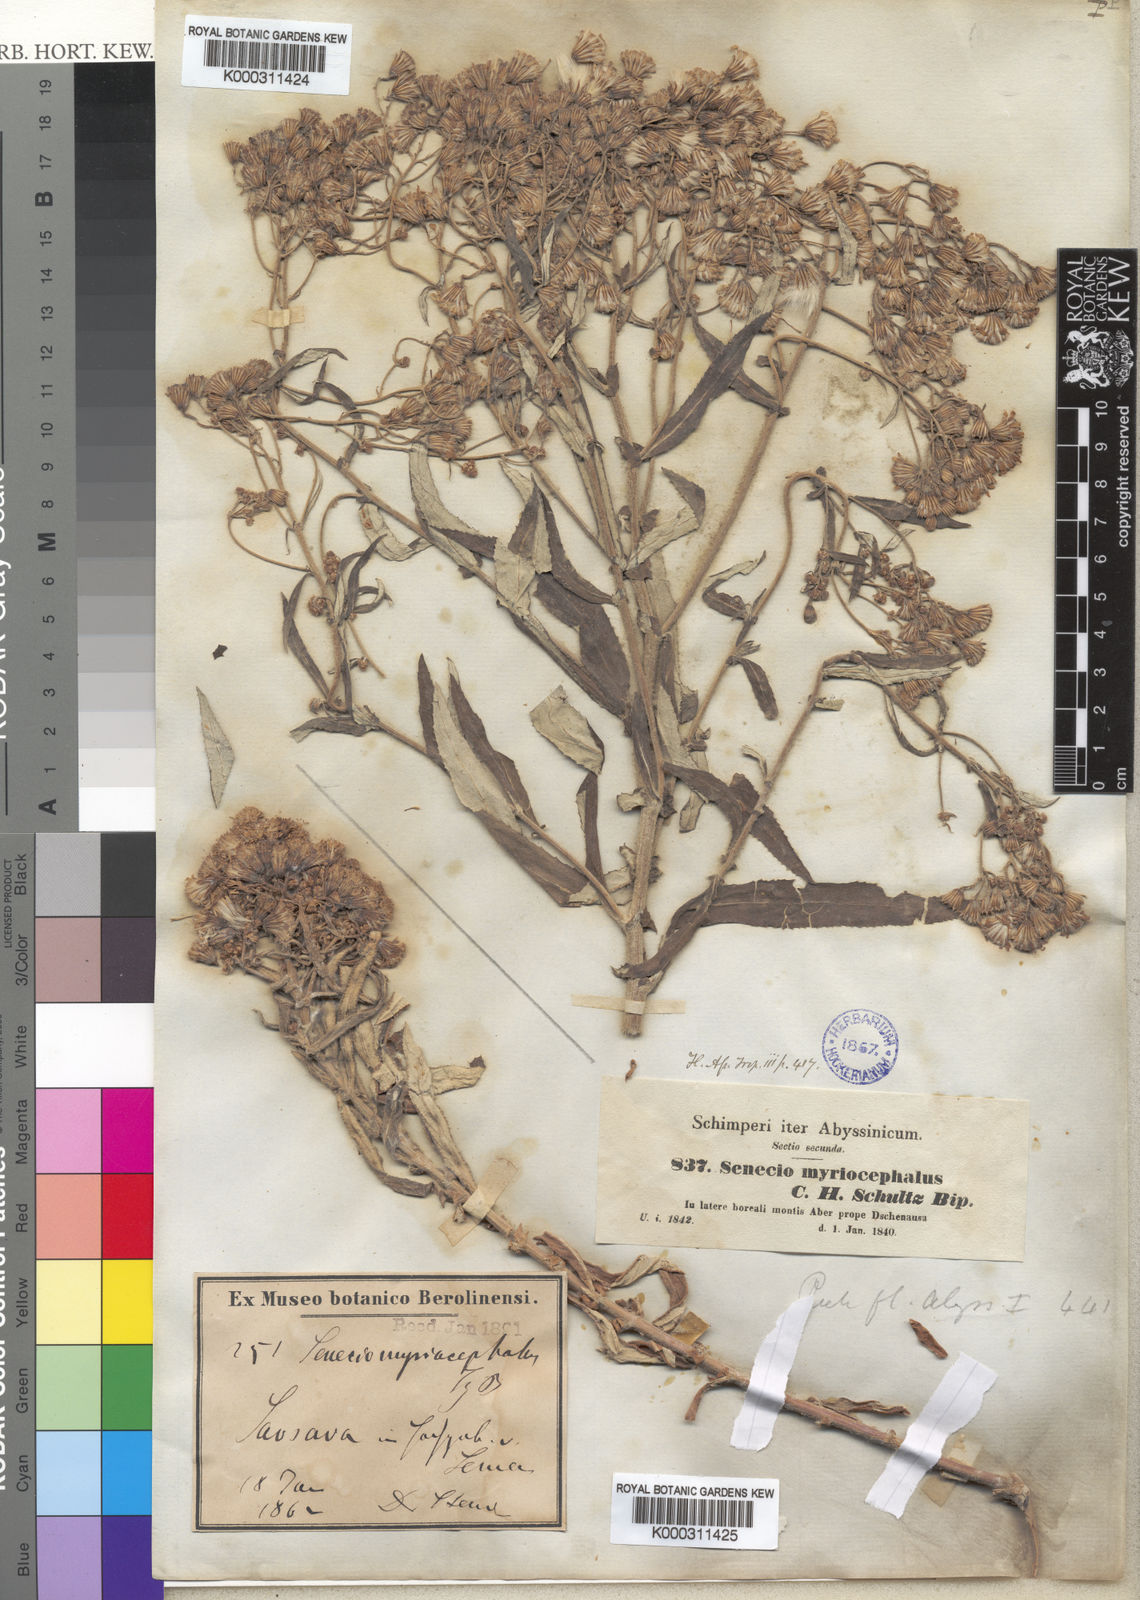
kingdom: Plantae
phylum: Tracheophyta
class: Magnoliopsida
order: Asterales
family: Asteraceae
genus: Senecio
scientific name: Senecio myriocephalus
